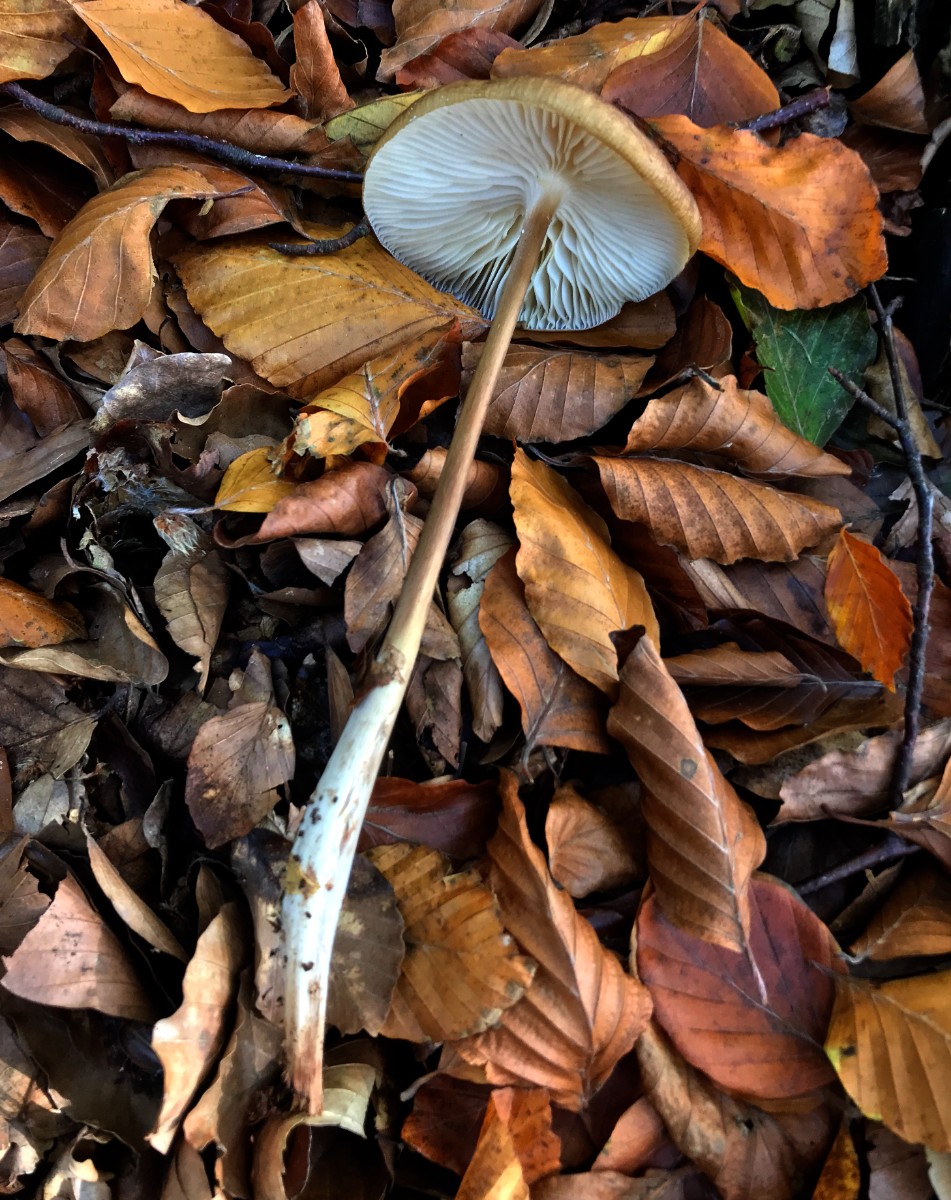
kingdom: Fungi
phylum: Basidiomycota
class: Agaricomycetes
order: Agaricales
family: Physalacriaceae
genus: Hymenopellis
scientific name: Hymenopellis radicata
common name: almindelig pælerodshat
